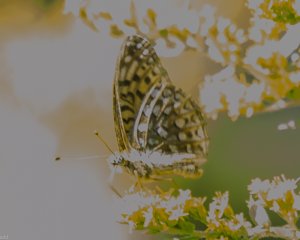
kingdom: Animalia
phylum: Arthropoda
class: Insecta
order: Lepidoptera
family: Nymphalidae
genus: Speyeria
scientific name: Speyeria atlantis
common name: Atlantis Fritillary
